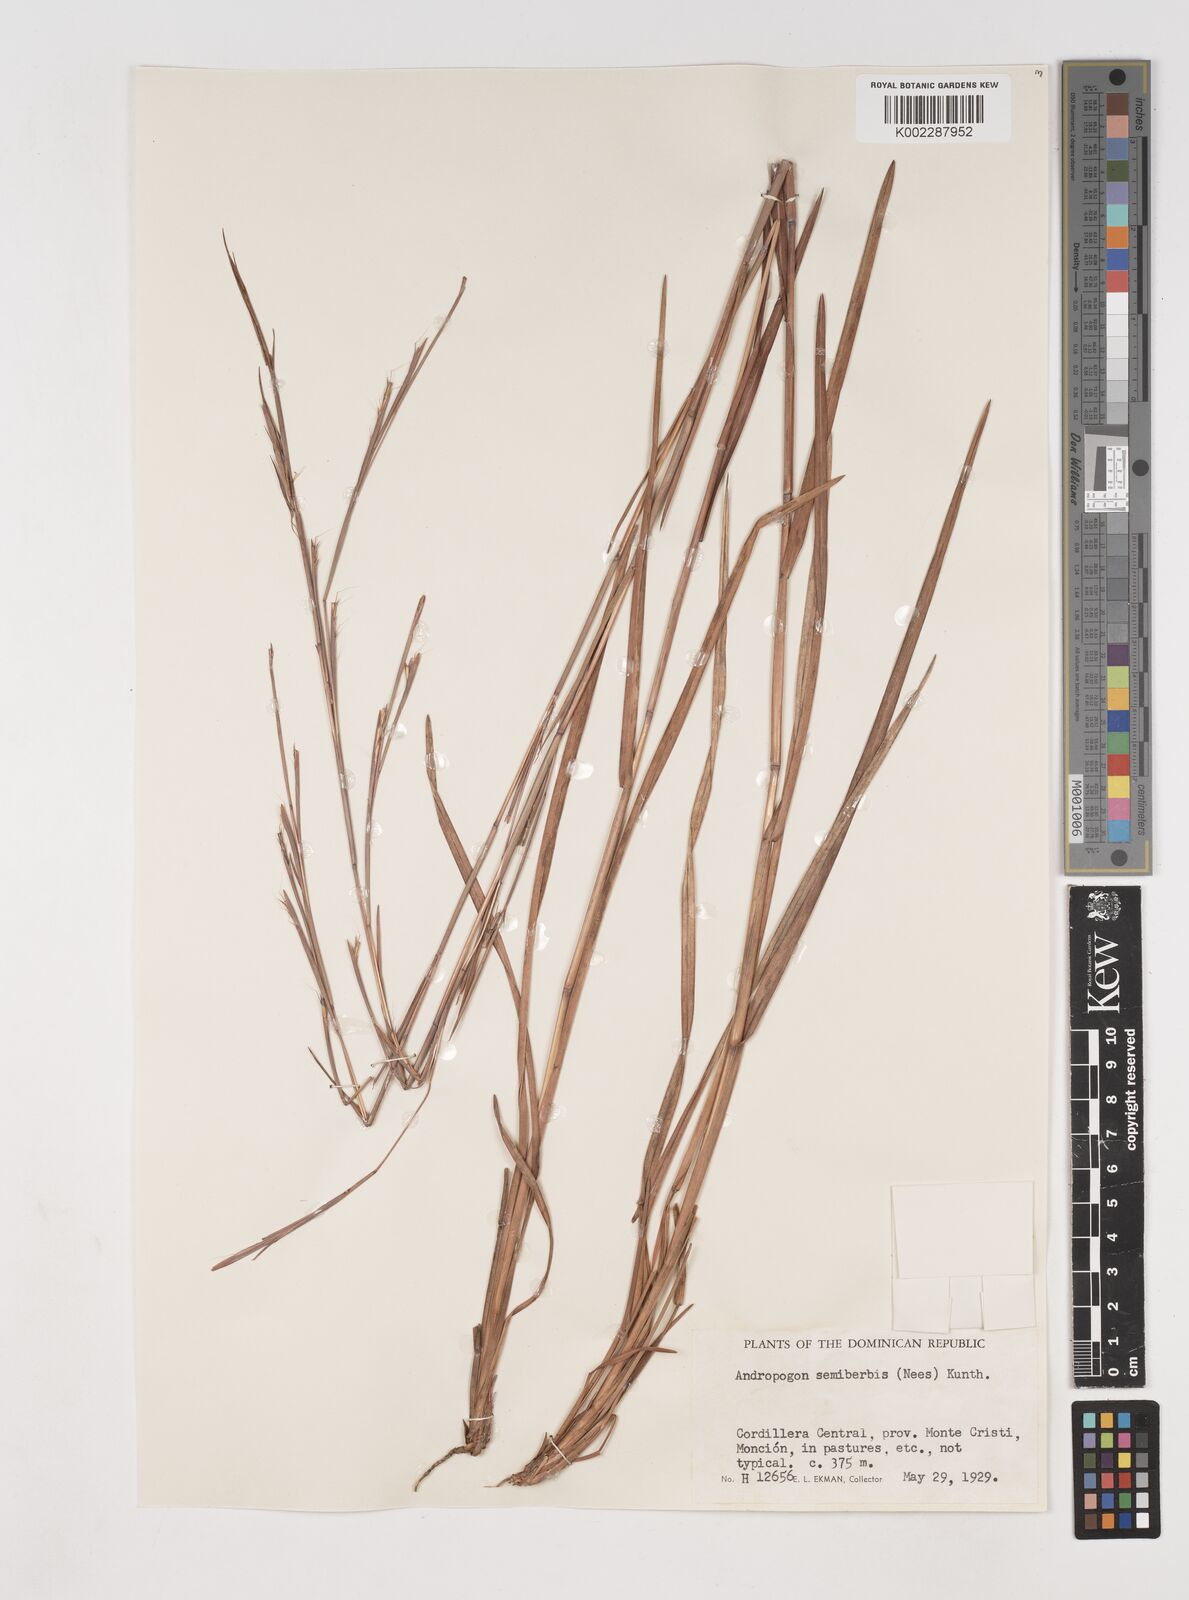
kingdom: Plantae
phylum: Tracheophyta
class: Liliopsida
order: Poales
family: Poaceae
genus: Schizachyrium
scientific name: Schizachyrium sanguineum
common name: Crimson bluestem
